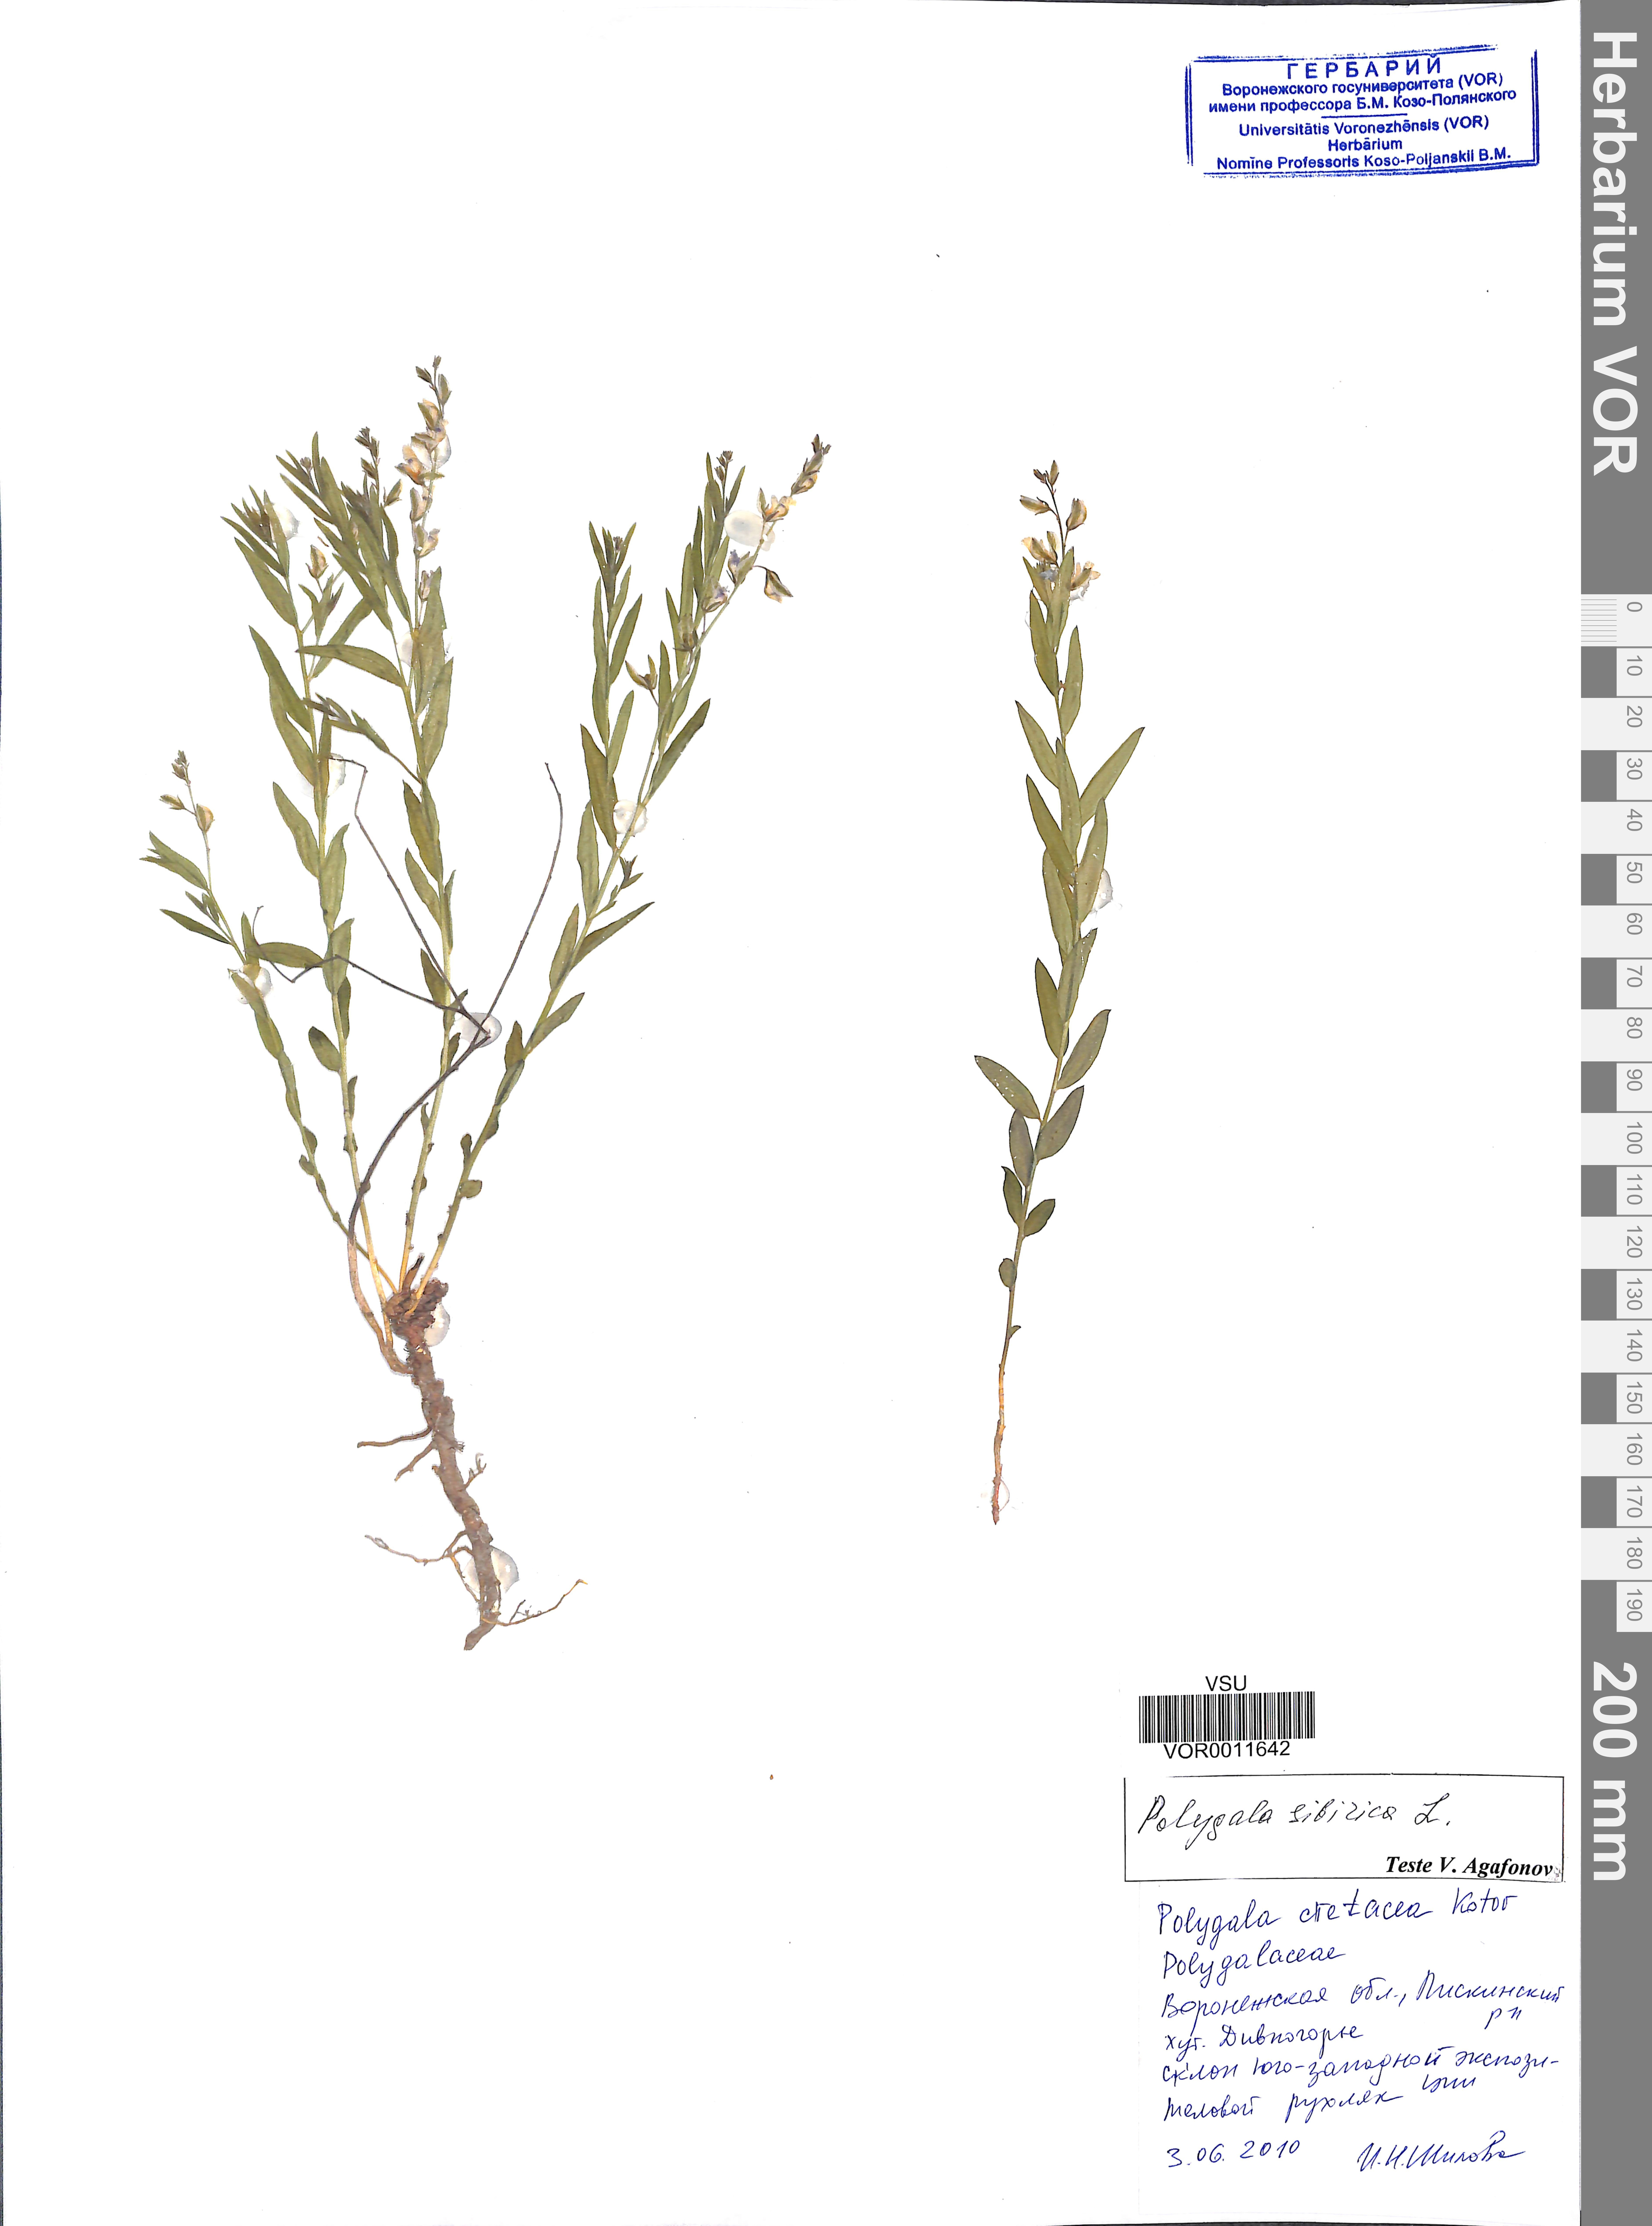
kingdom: Plantae
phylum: Tracheophyta
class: Magnoliopsida
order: Fabales
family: Polygalaceae
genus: Polygala
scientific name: Polygala sibirica
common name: Siberian polygala
